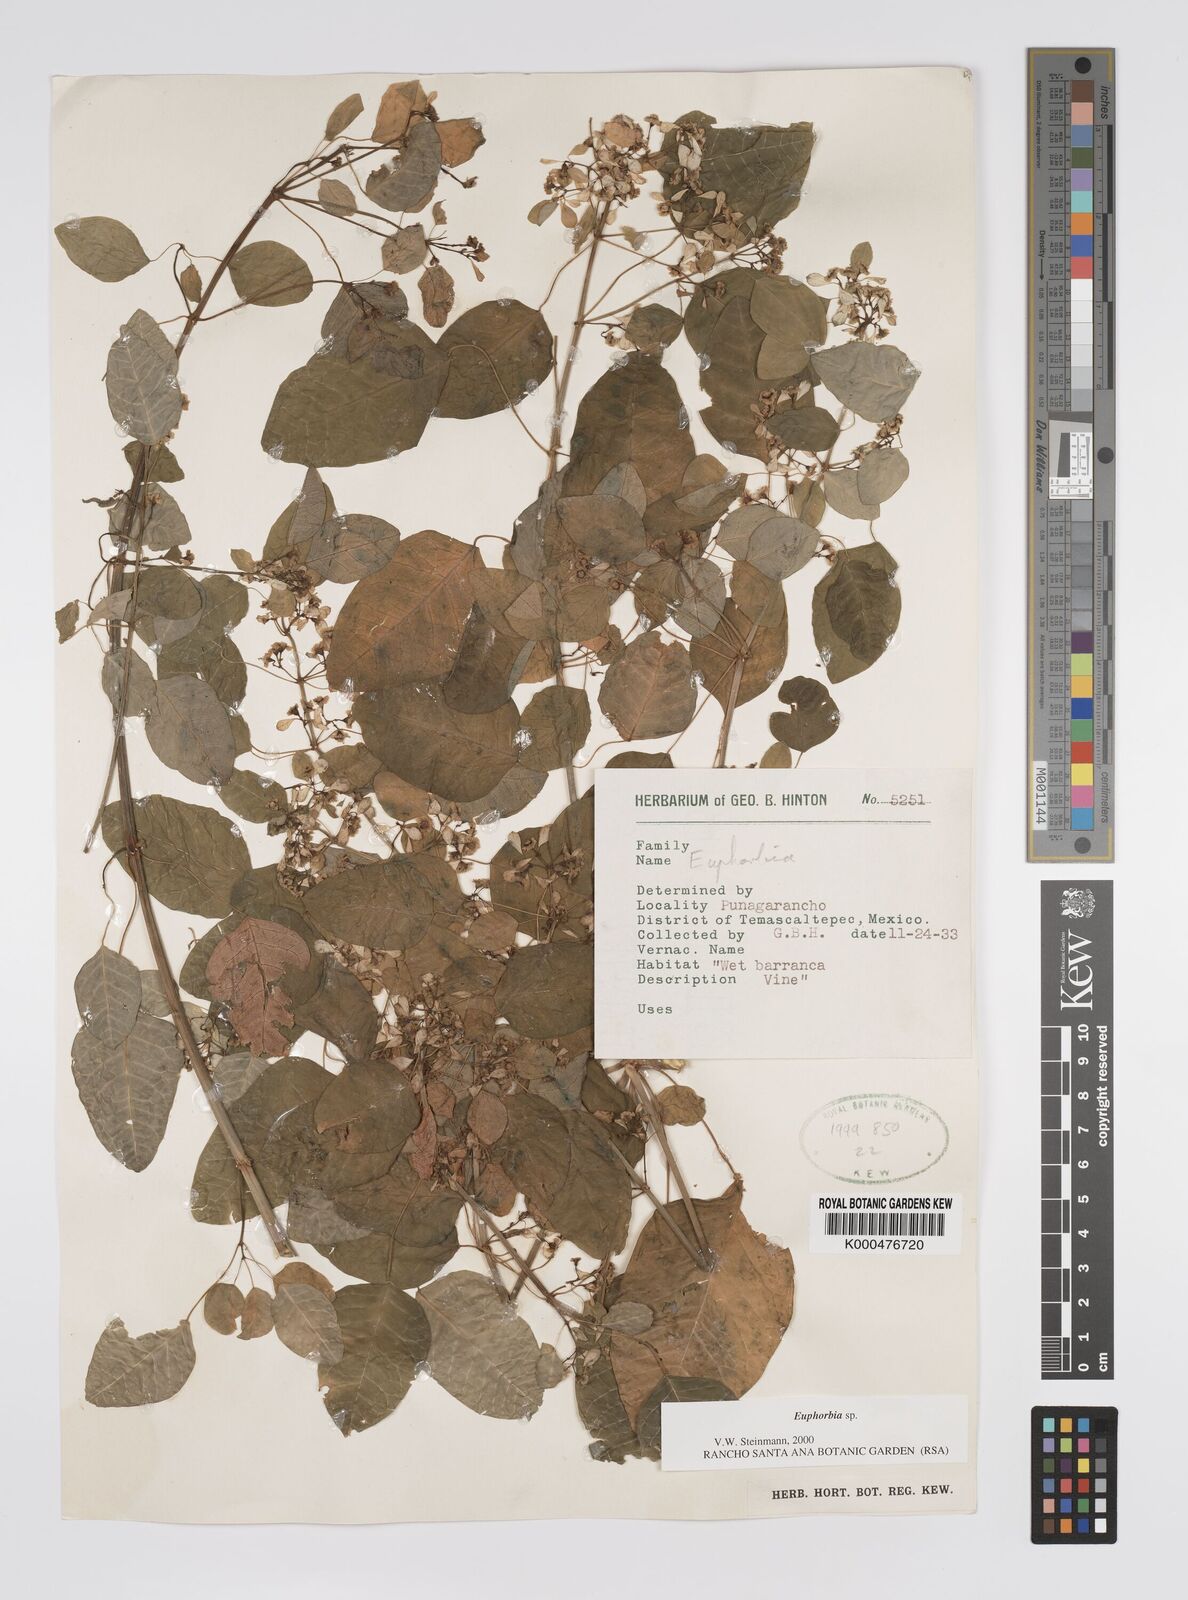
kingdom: Plantae
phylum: Tracheophyta
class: Magnoliopsida
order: Malpighiales
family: Euphorbiaceae
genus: Euphorbia
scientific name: Euphorbia
